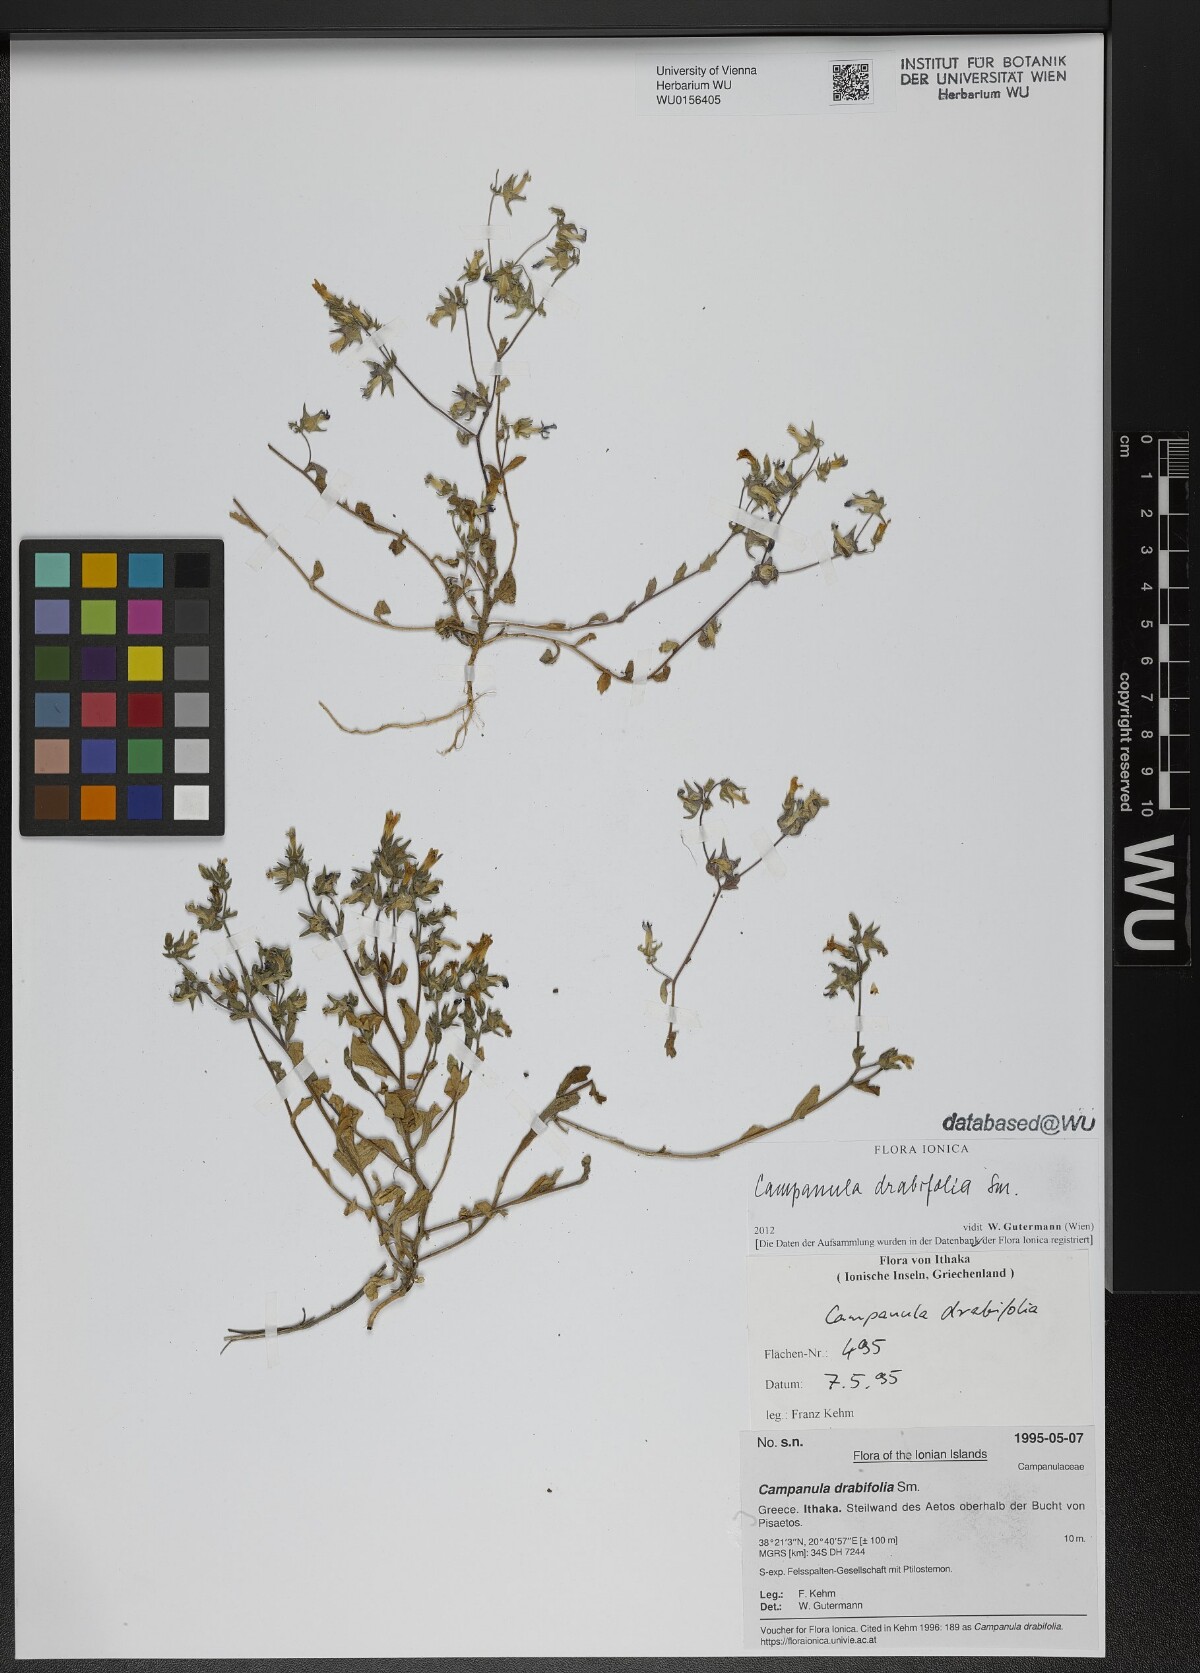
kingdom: Plantae
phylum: Tracheophyta
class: Magnoliopsida
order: Asterales
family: Campanulaceae
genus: Campanula
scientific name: Campanula drabifolia
